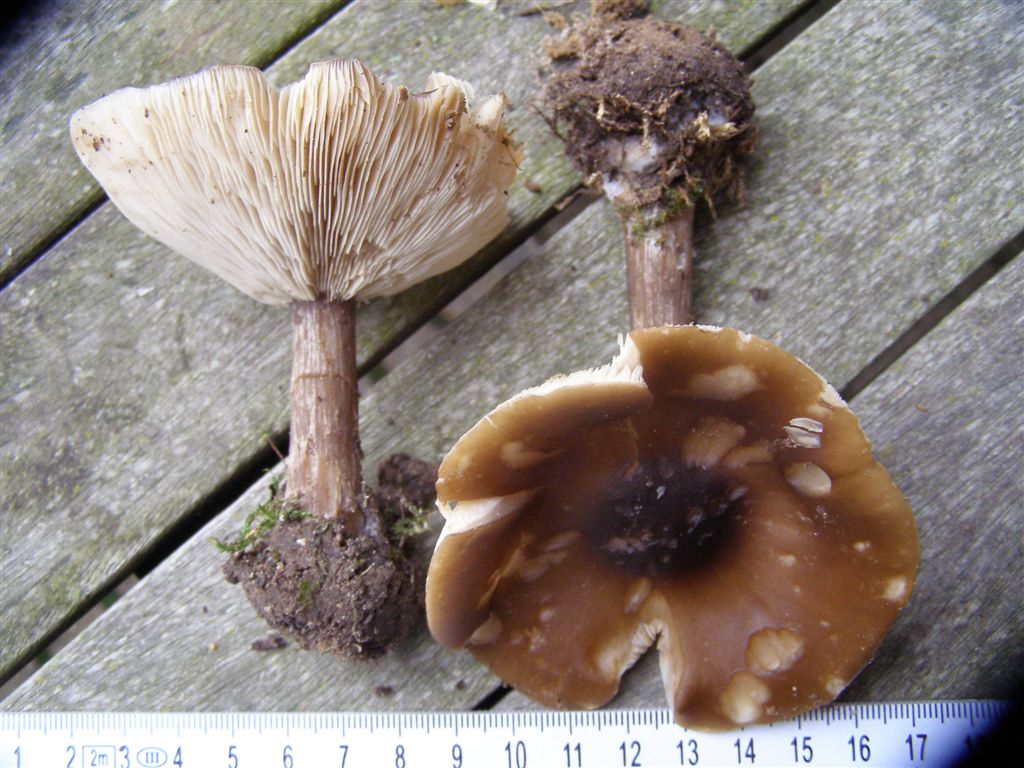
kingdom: Fungi
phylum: Basidiomycota
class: Agaricomycetes
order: Agaricales
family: Tricholomataceae
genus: Melanoleuca
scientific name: Melanoleuca grammopodia
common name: stribestokket munkehat
